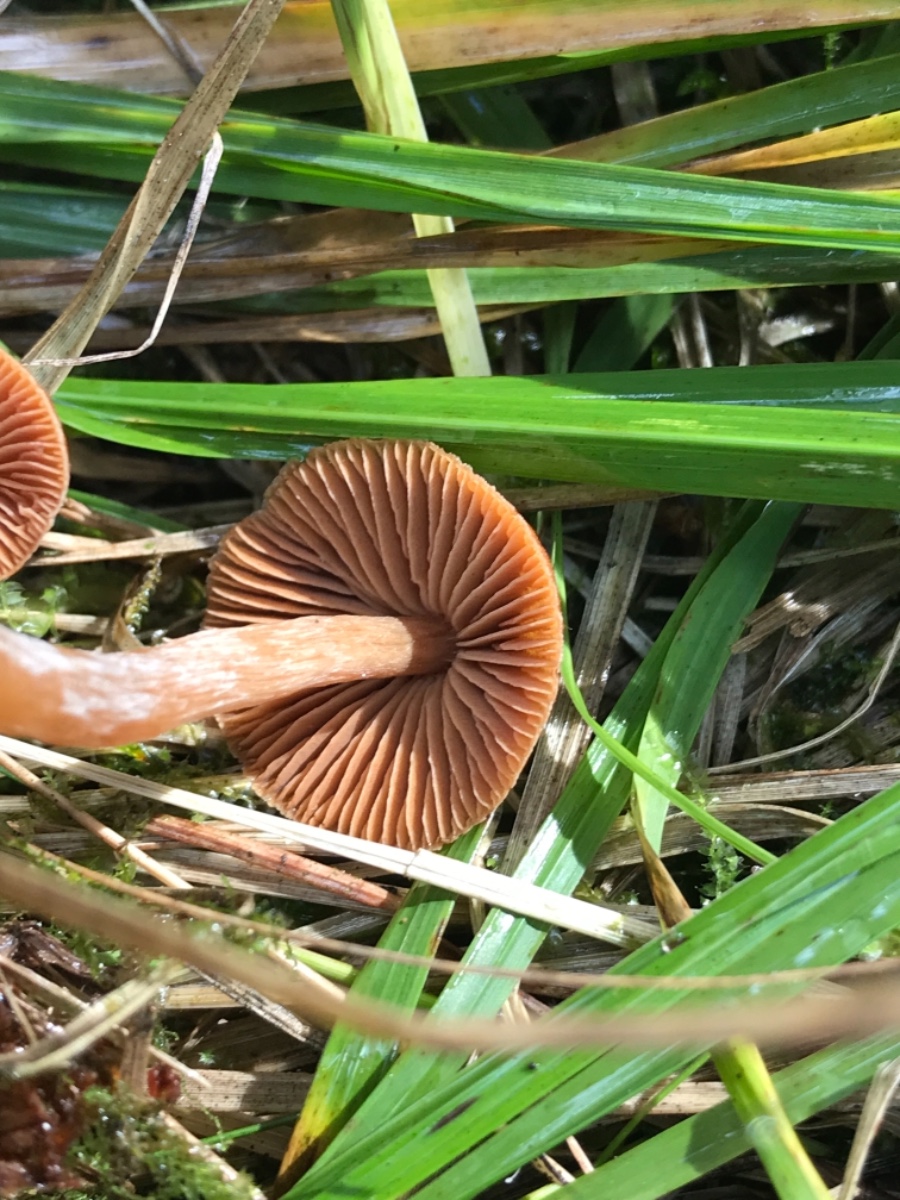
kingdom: Fungi
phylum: Basidiomycota
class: Agaricomycetes
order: Agaricales
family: Cortinariaceae
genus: Cortinarius
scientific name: Cortinarius
